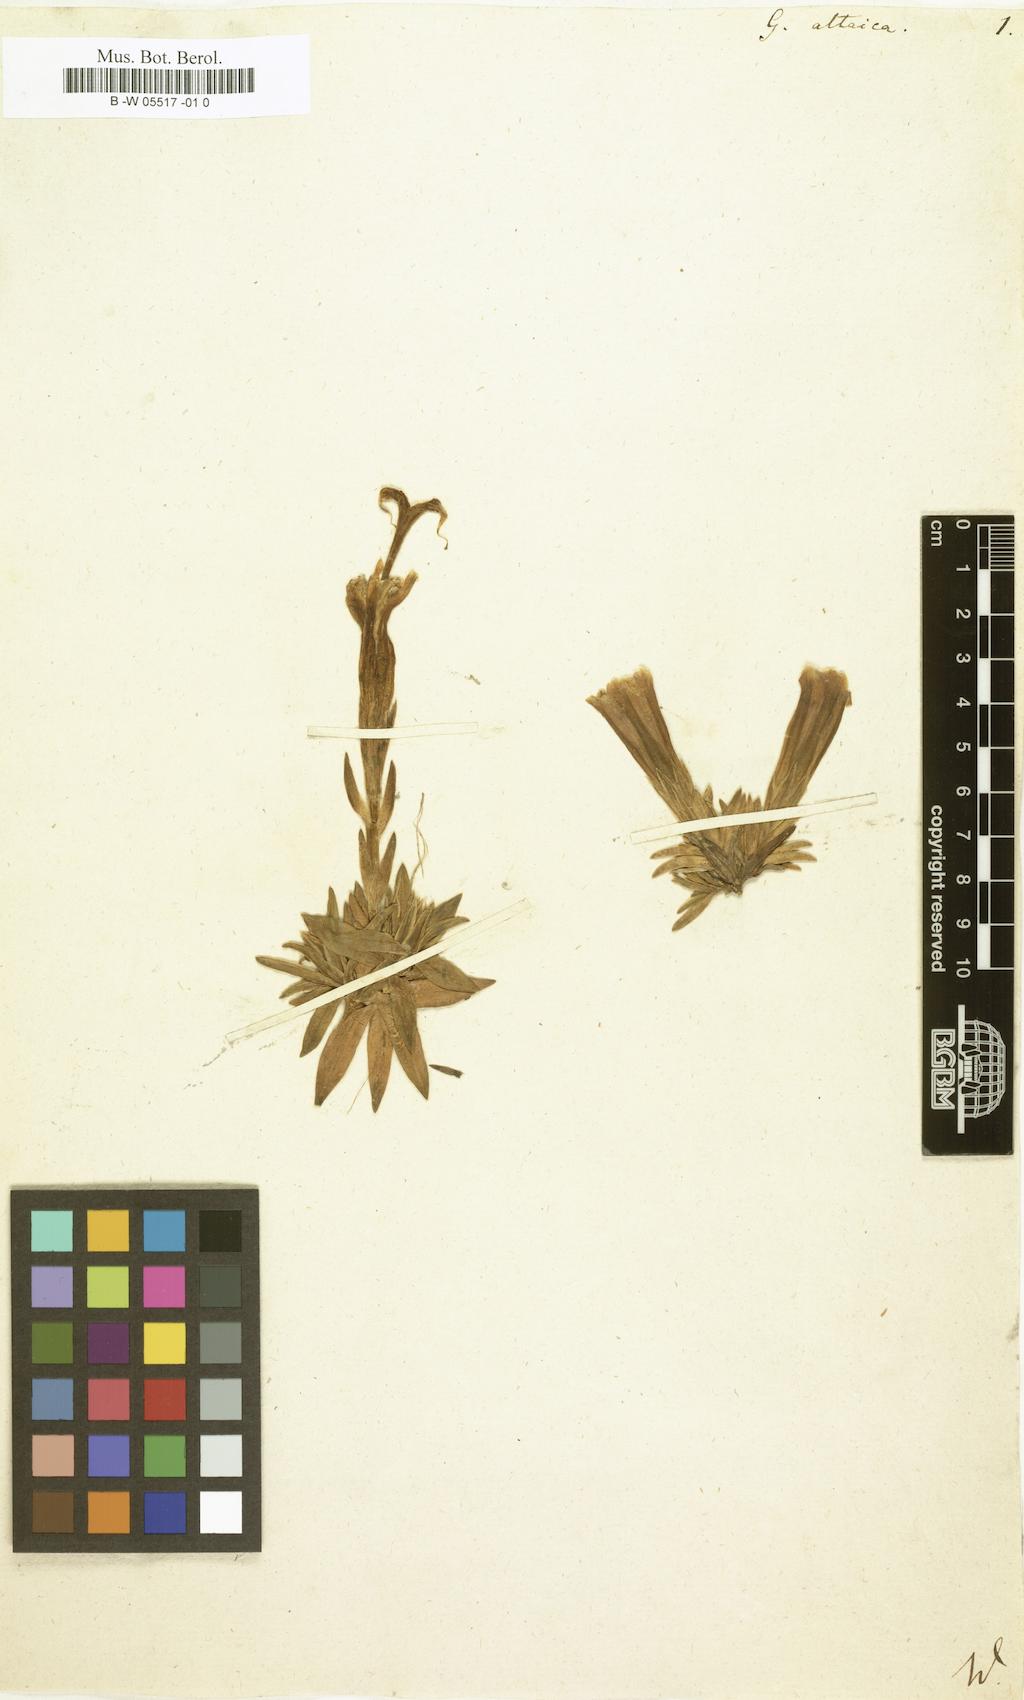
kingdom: Plantae
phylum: Tracheophyta
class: Magnoliopsida
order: Gentianales
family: Gentianaceae
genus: Gentiana
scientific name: Gentiana grandiflora
